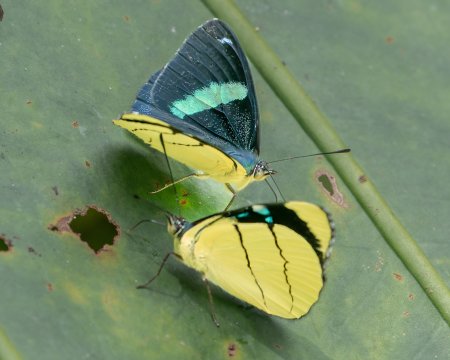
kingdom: Animalia
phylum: Arthropoda
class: Insecta
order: Lepidoptera
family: Nymphalidae
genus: Perisama
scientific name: Perisama oppelii
